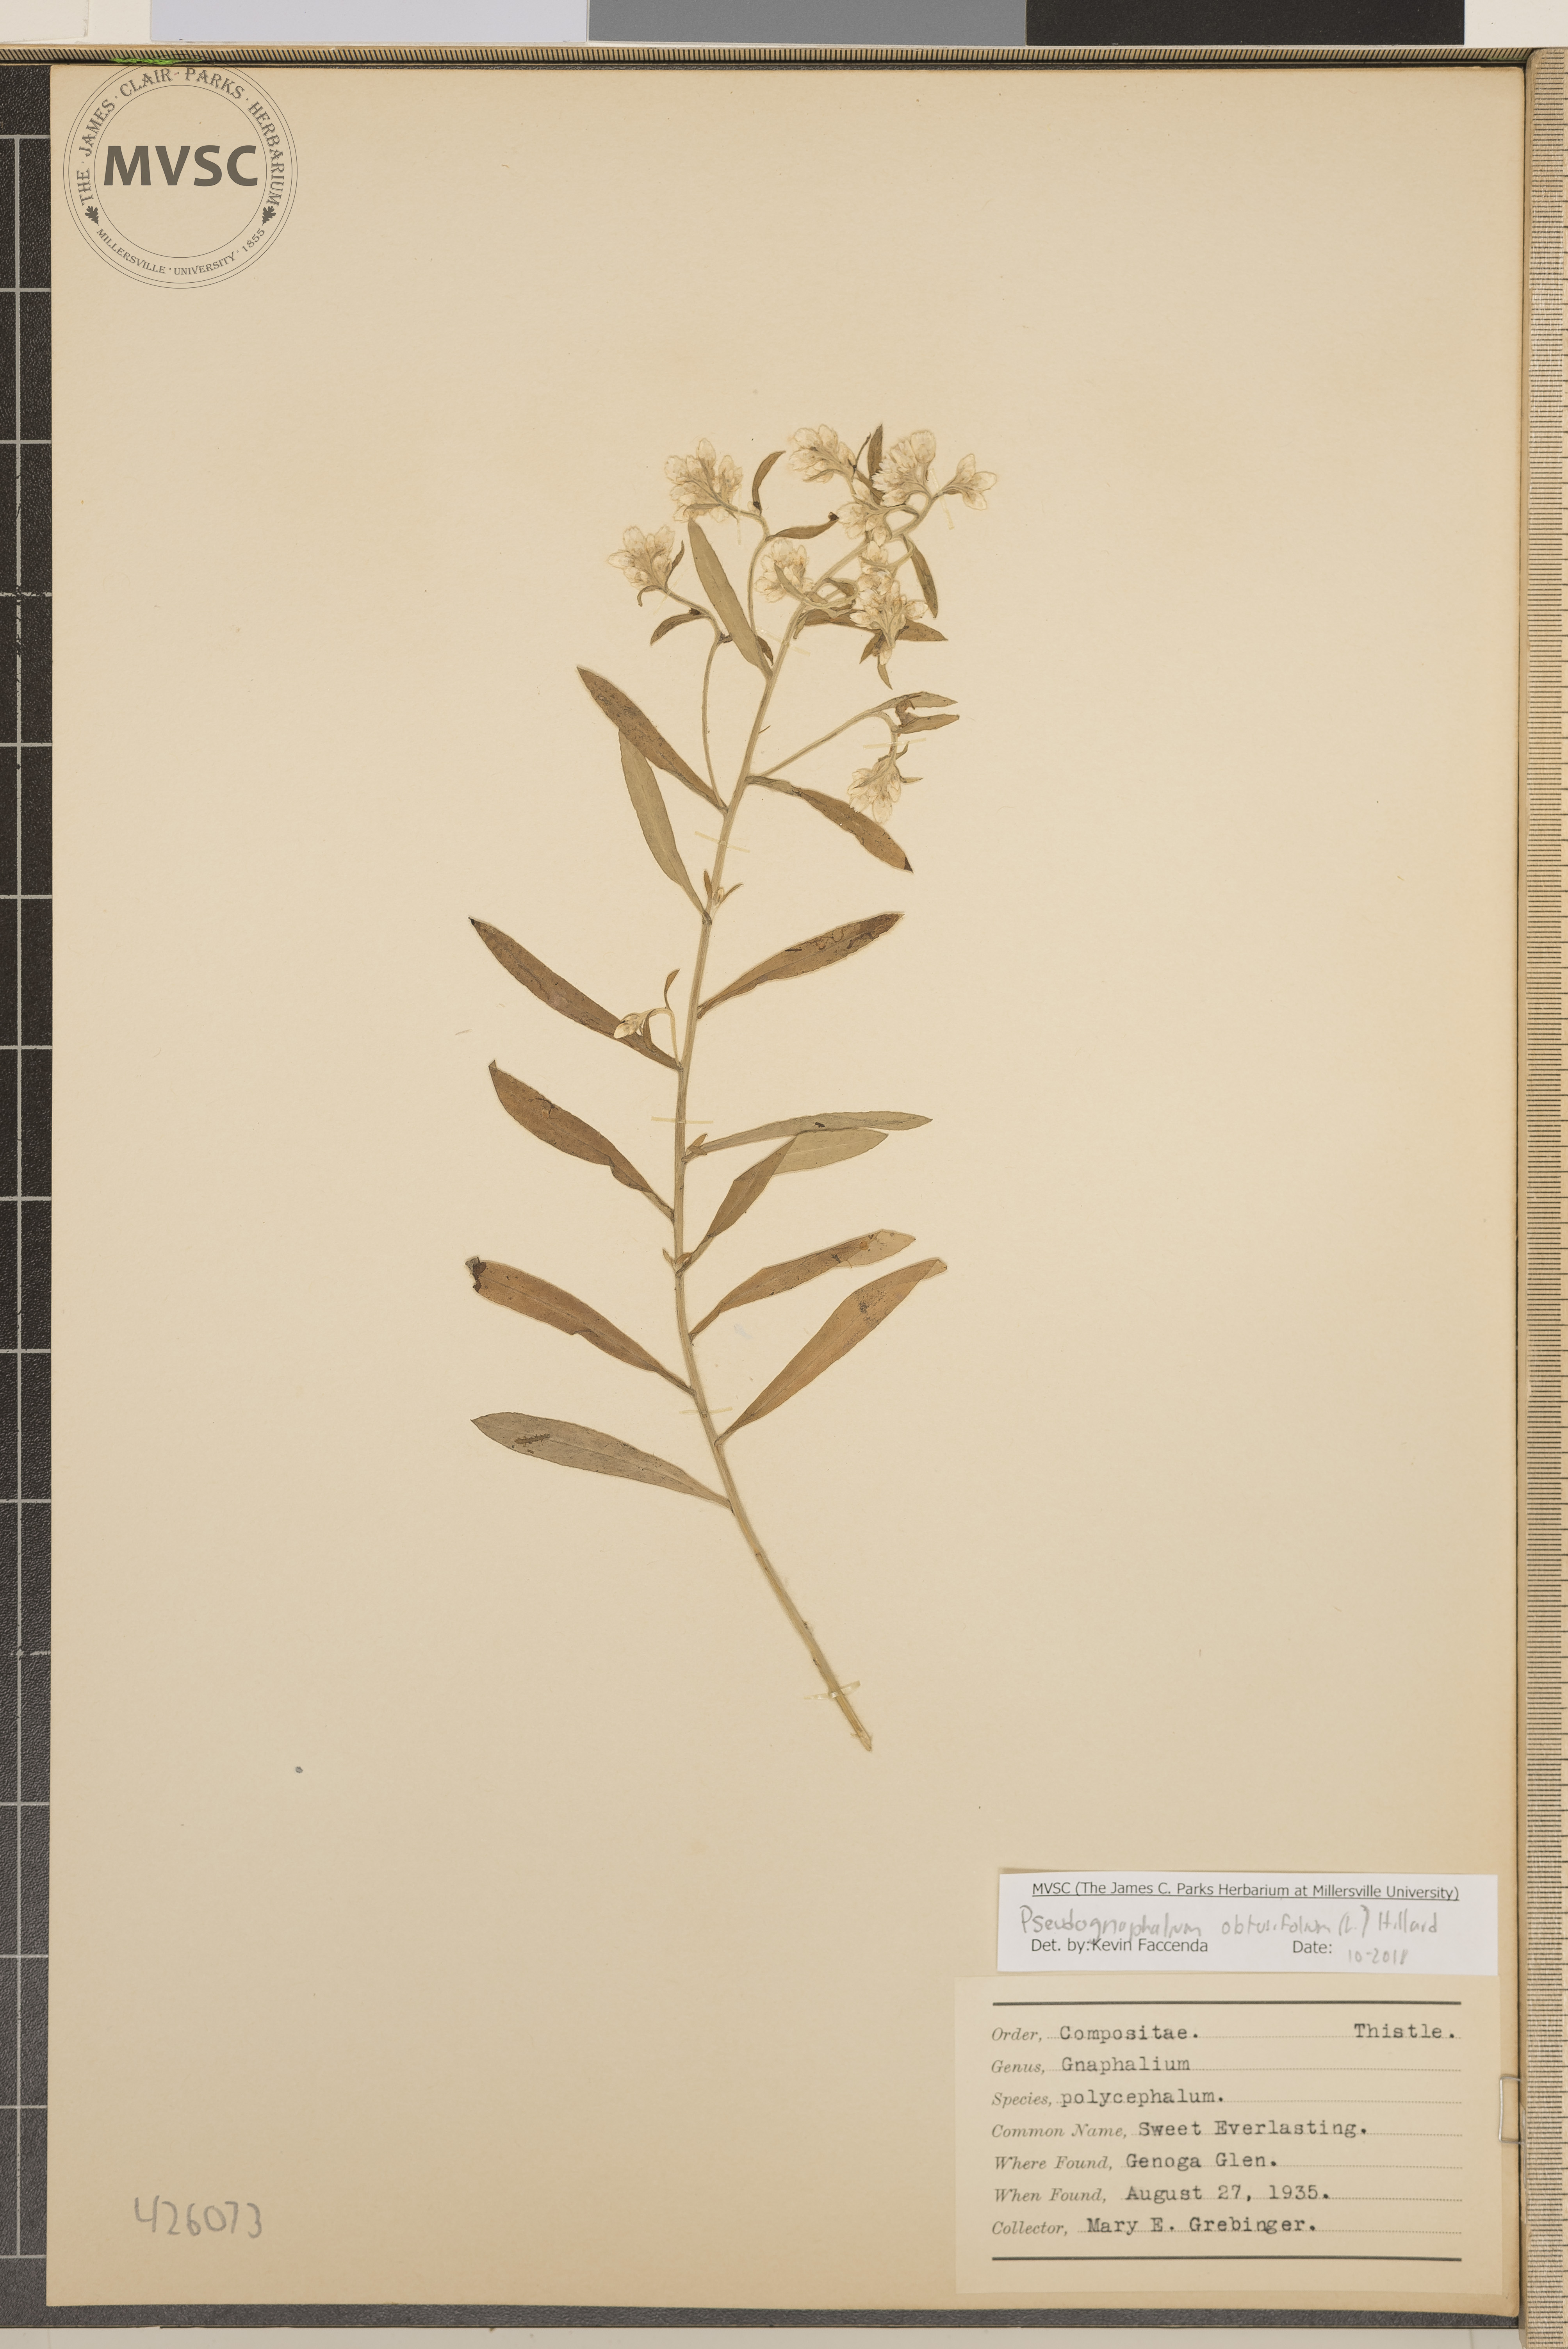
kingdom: Plantae
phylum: Tracheophyta
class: Magnoliopsida
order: Asterales
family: Asteraceae
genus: Pseudognaphalium
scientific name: Pseudognaphalium obtusifolium
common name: Sweet Everlasting
